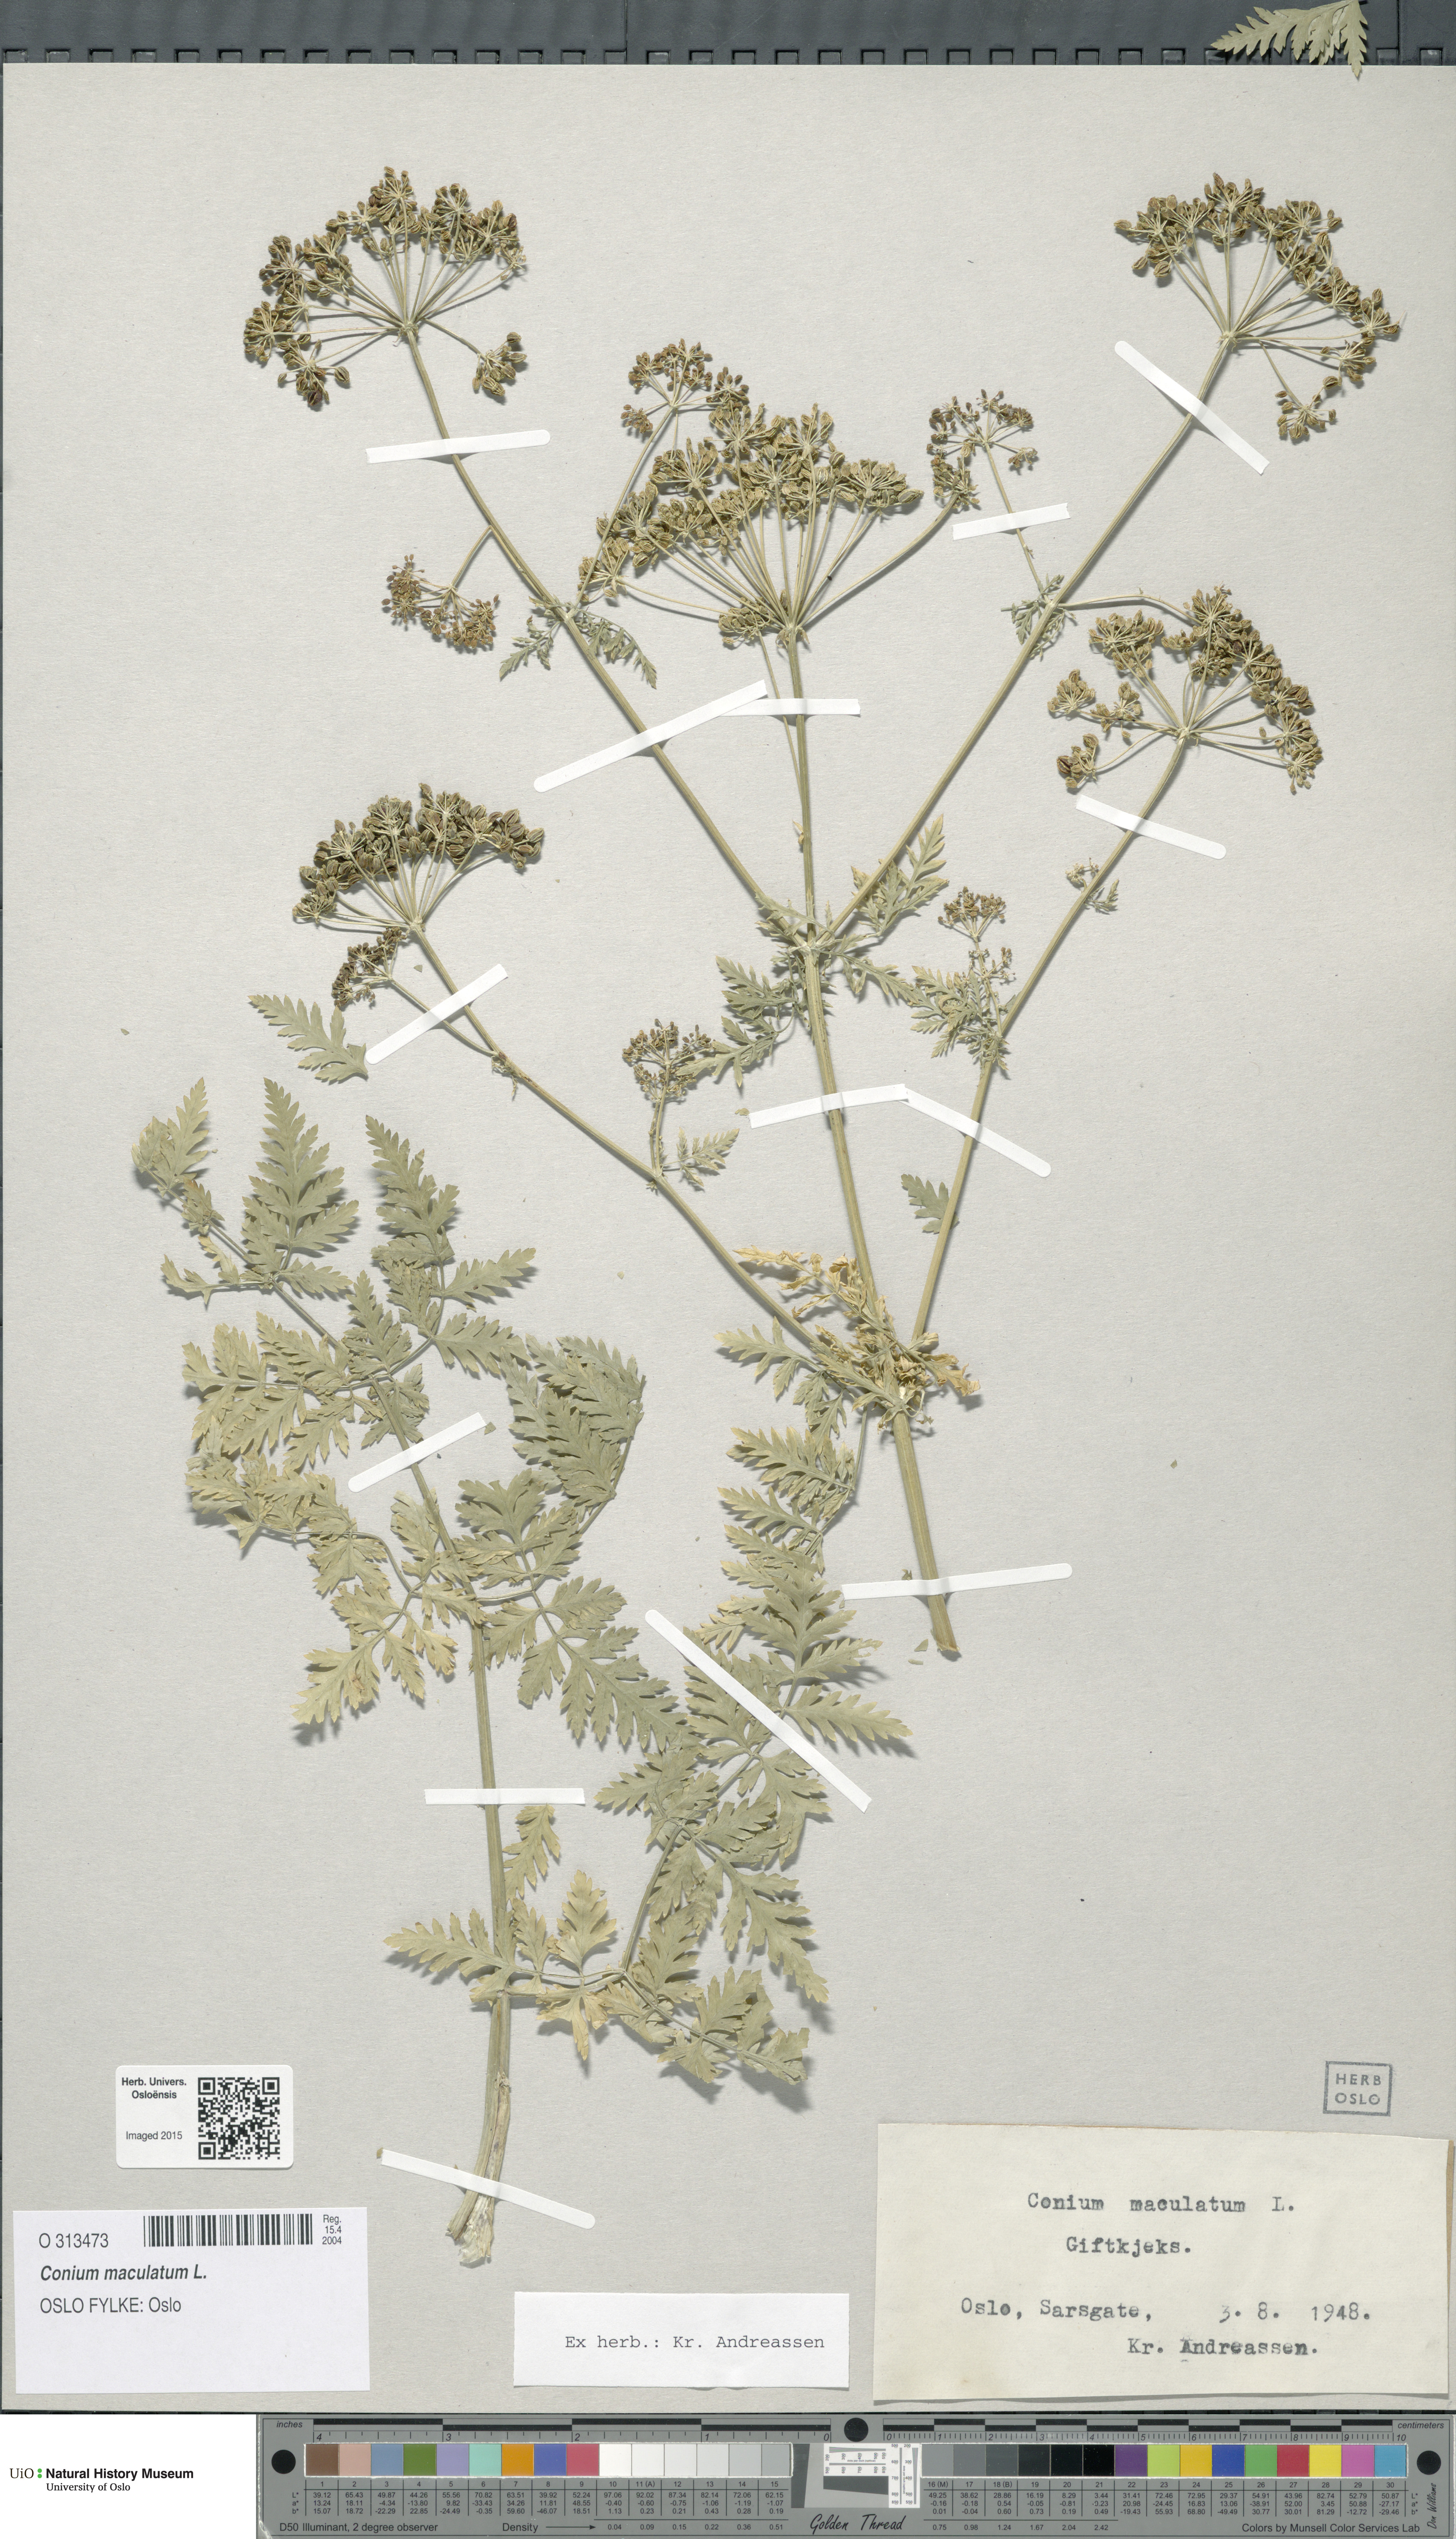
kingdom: Plantae
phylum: Tracheophyta
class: Magnoliopsida
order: Apiales
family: Apiaceae
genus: Conium
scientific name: Conium maculatum
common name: Hemlock
